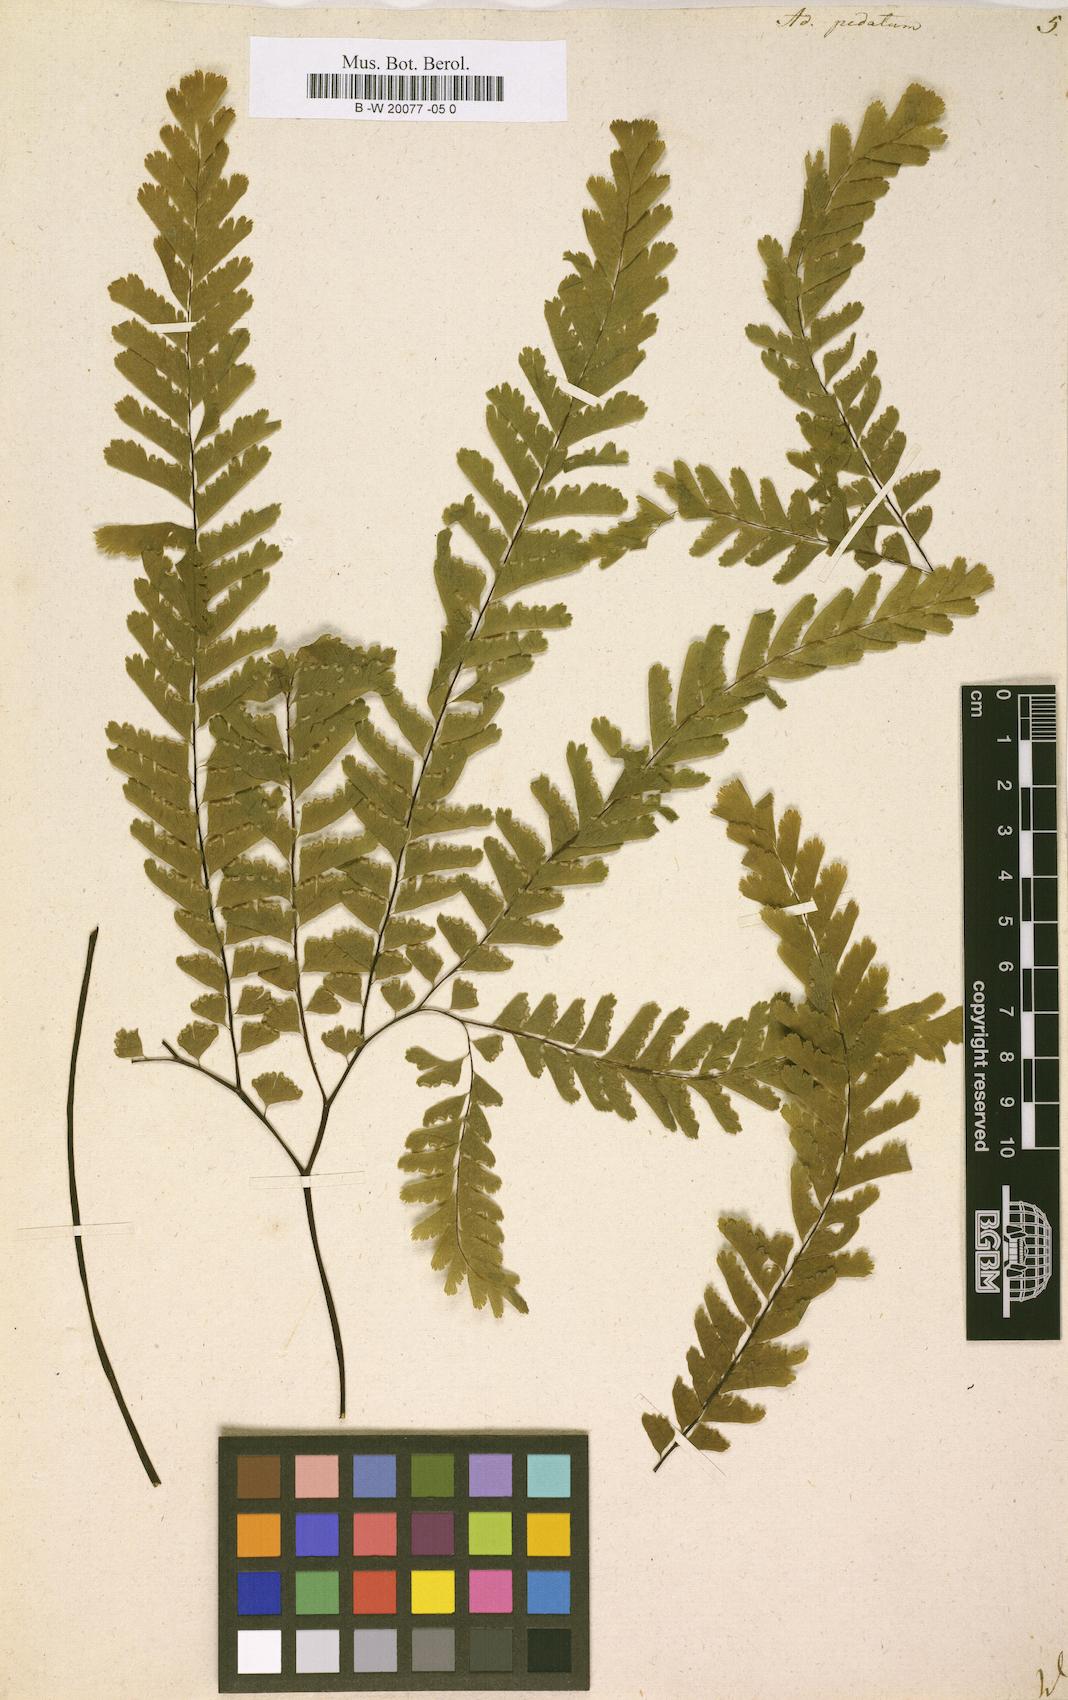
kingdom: Plantae
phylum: Tracheophyta
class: Polypodiopsida
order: Polypodiales
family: Pteridaceae
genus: Adiantum
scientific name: Adiantum pedatum
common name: Five-finger fern
